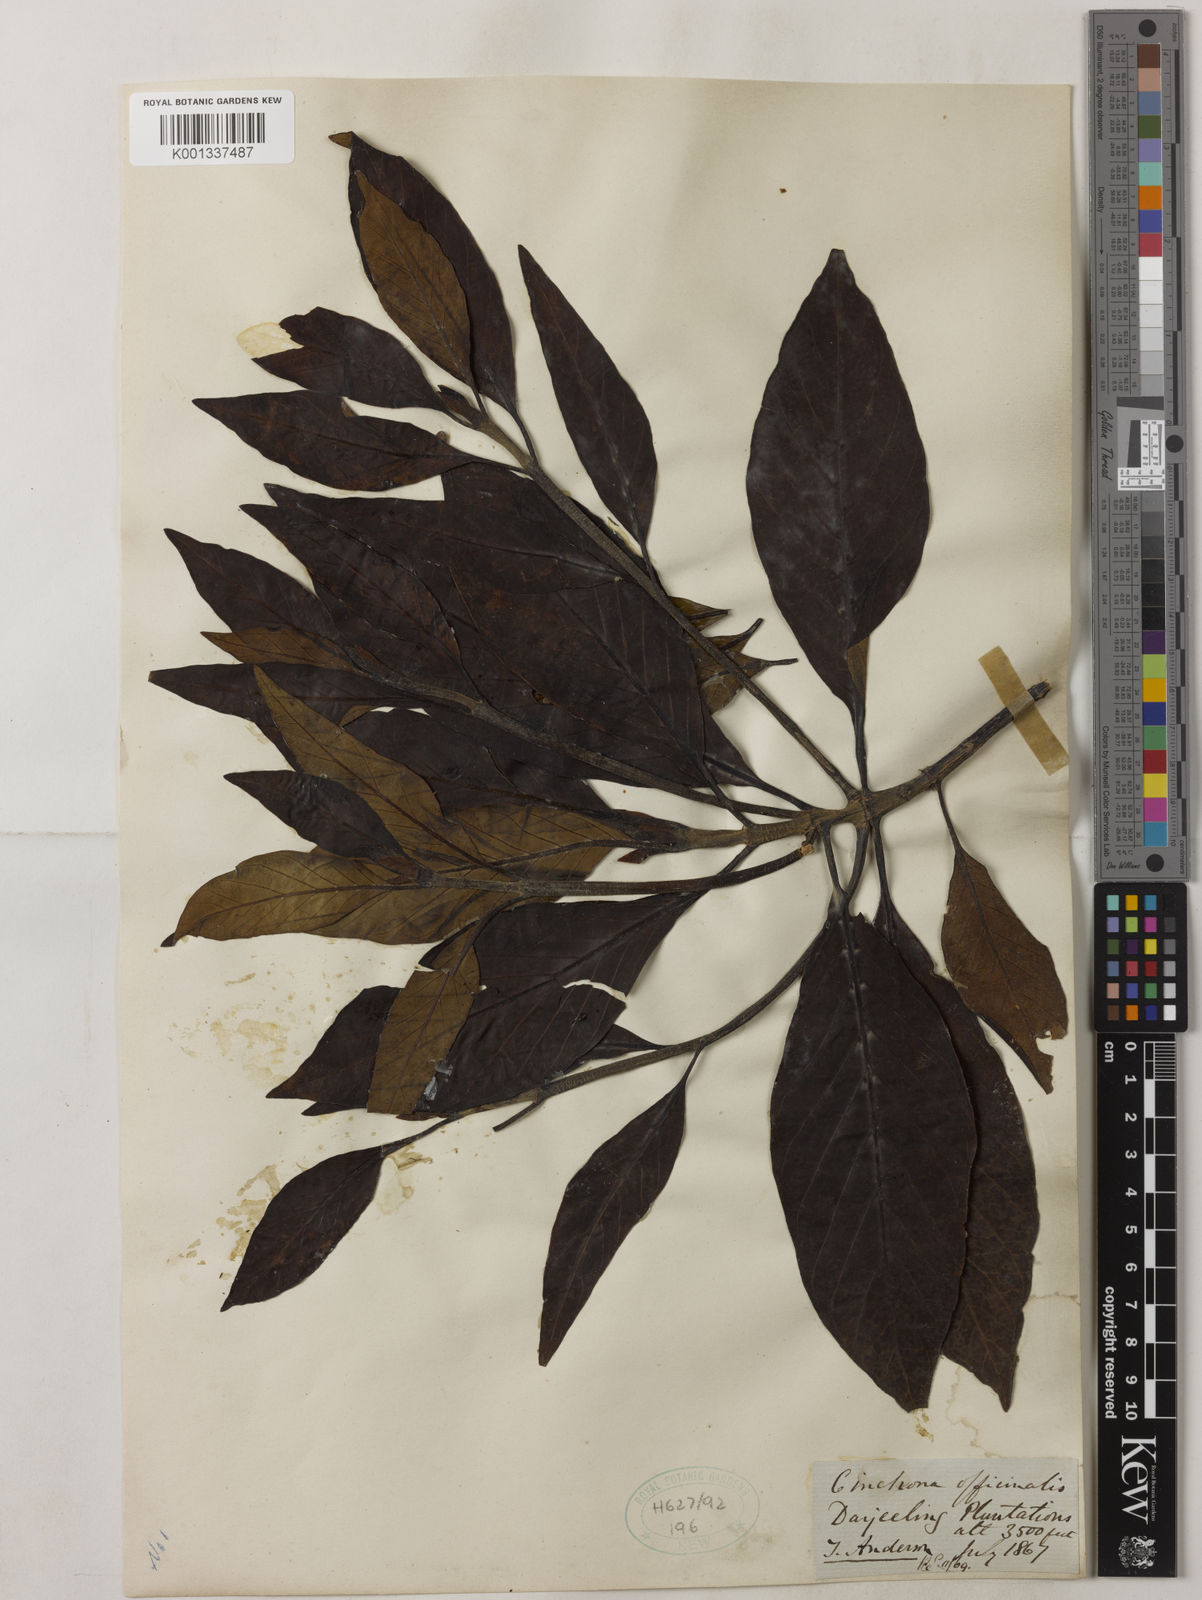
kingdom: Plantae
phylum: Tracheophyta
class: Magnoliopsida
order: Gentianales
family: Rubiaceae
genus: Cinchona
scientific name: Cinchona officinalis
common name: Lojabark
